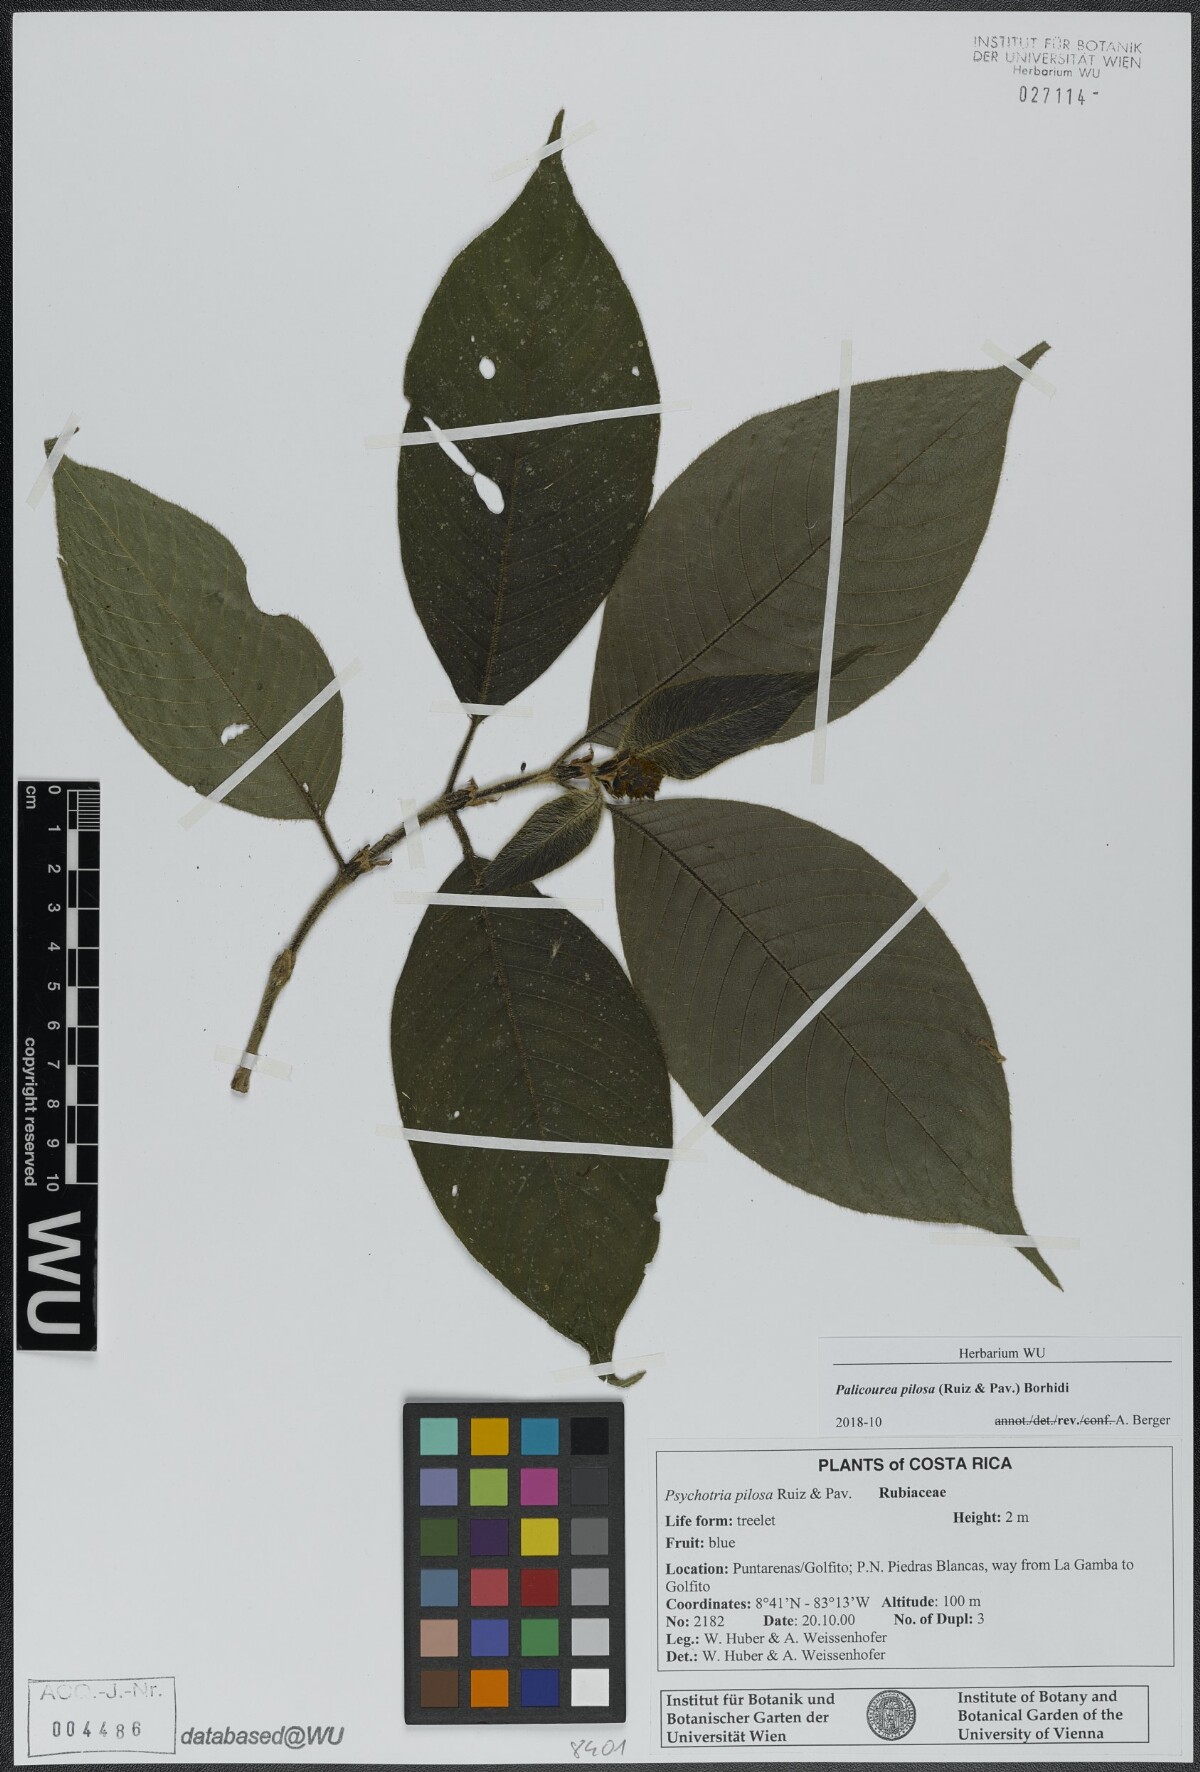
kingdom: Plantae
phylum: Tracheophyta
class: Magnoliopsida
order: Gentianales
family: Rubiaceae
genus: Palicourea
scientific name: Palicourea pilosa
